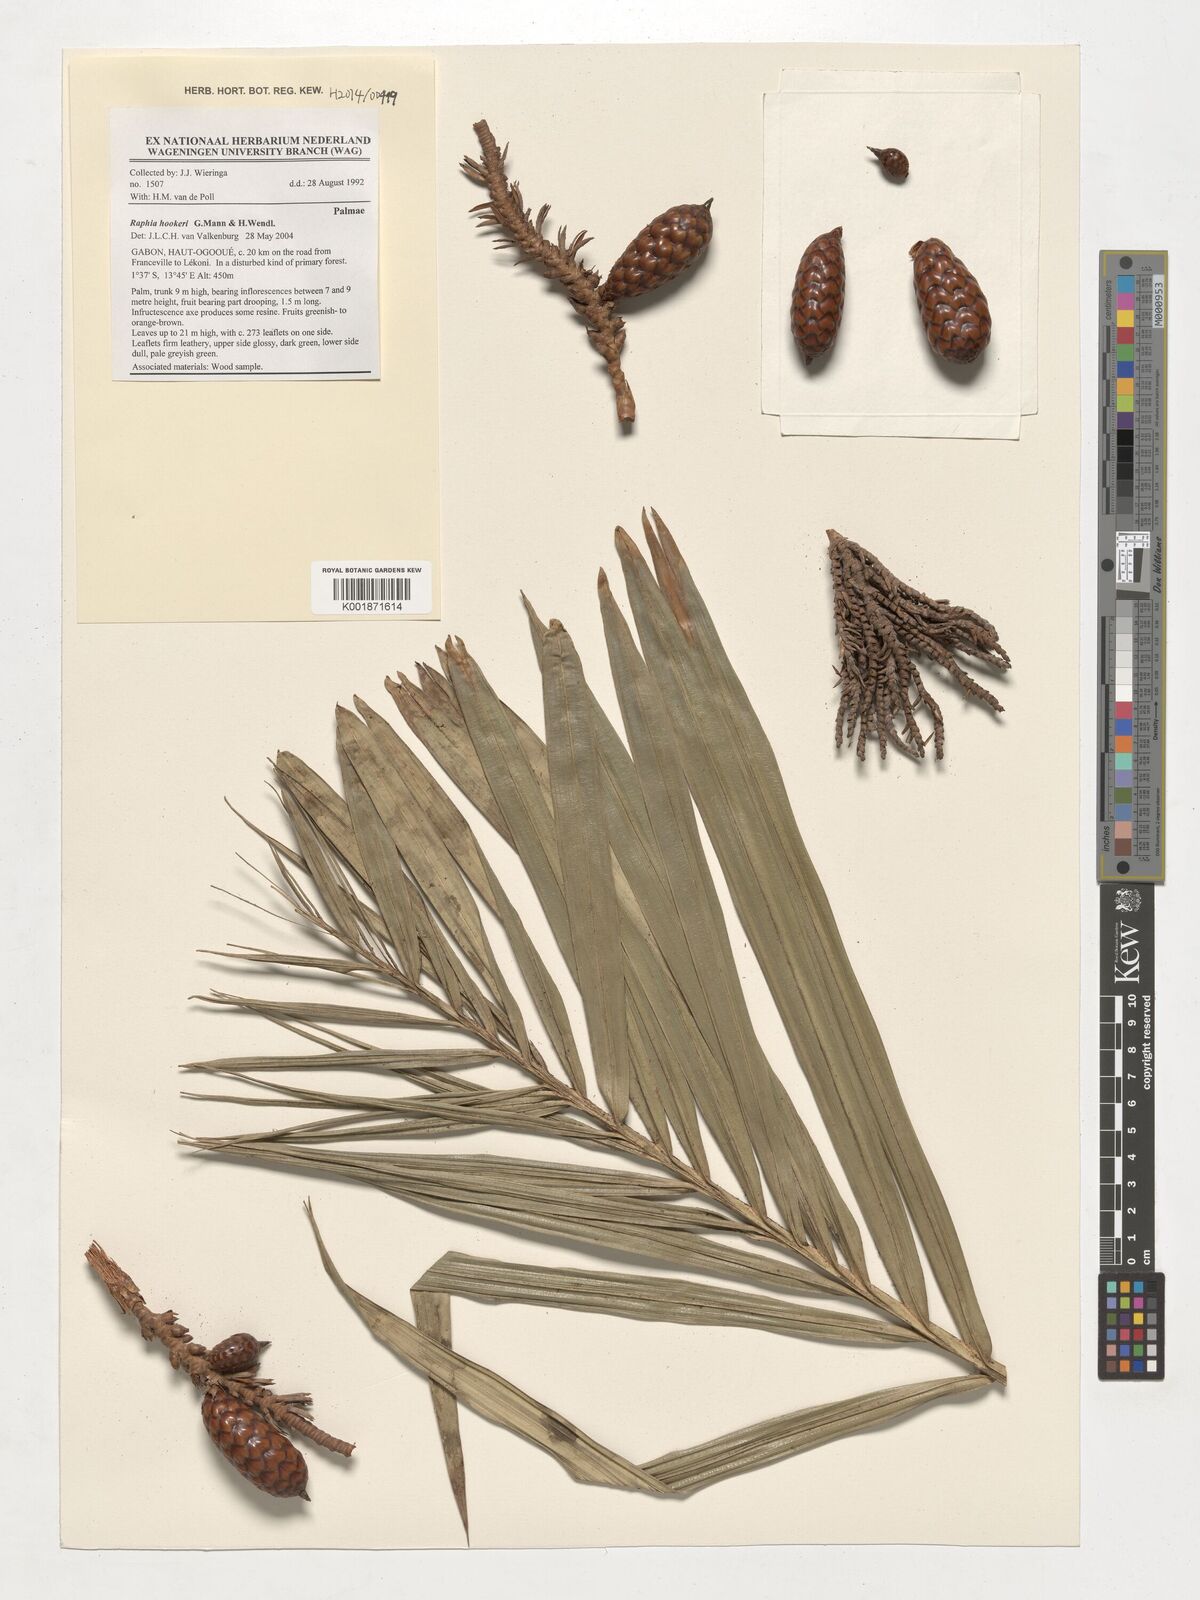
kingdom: Plantae
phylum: Tracheophyta
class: Liliopsida
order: Arecales
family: Arecaceae
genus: Raphia
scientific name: Raphia hookeri
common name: Wine palm
